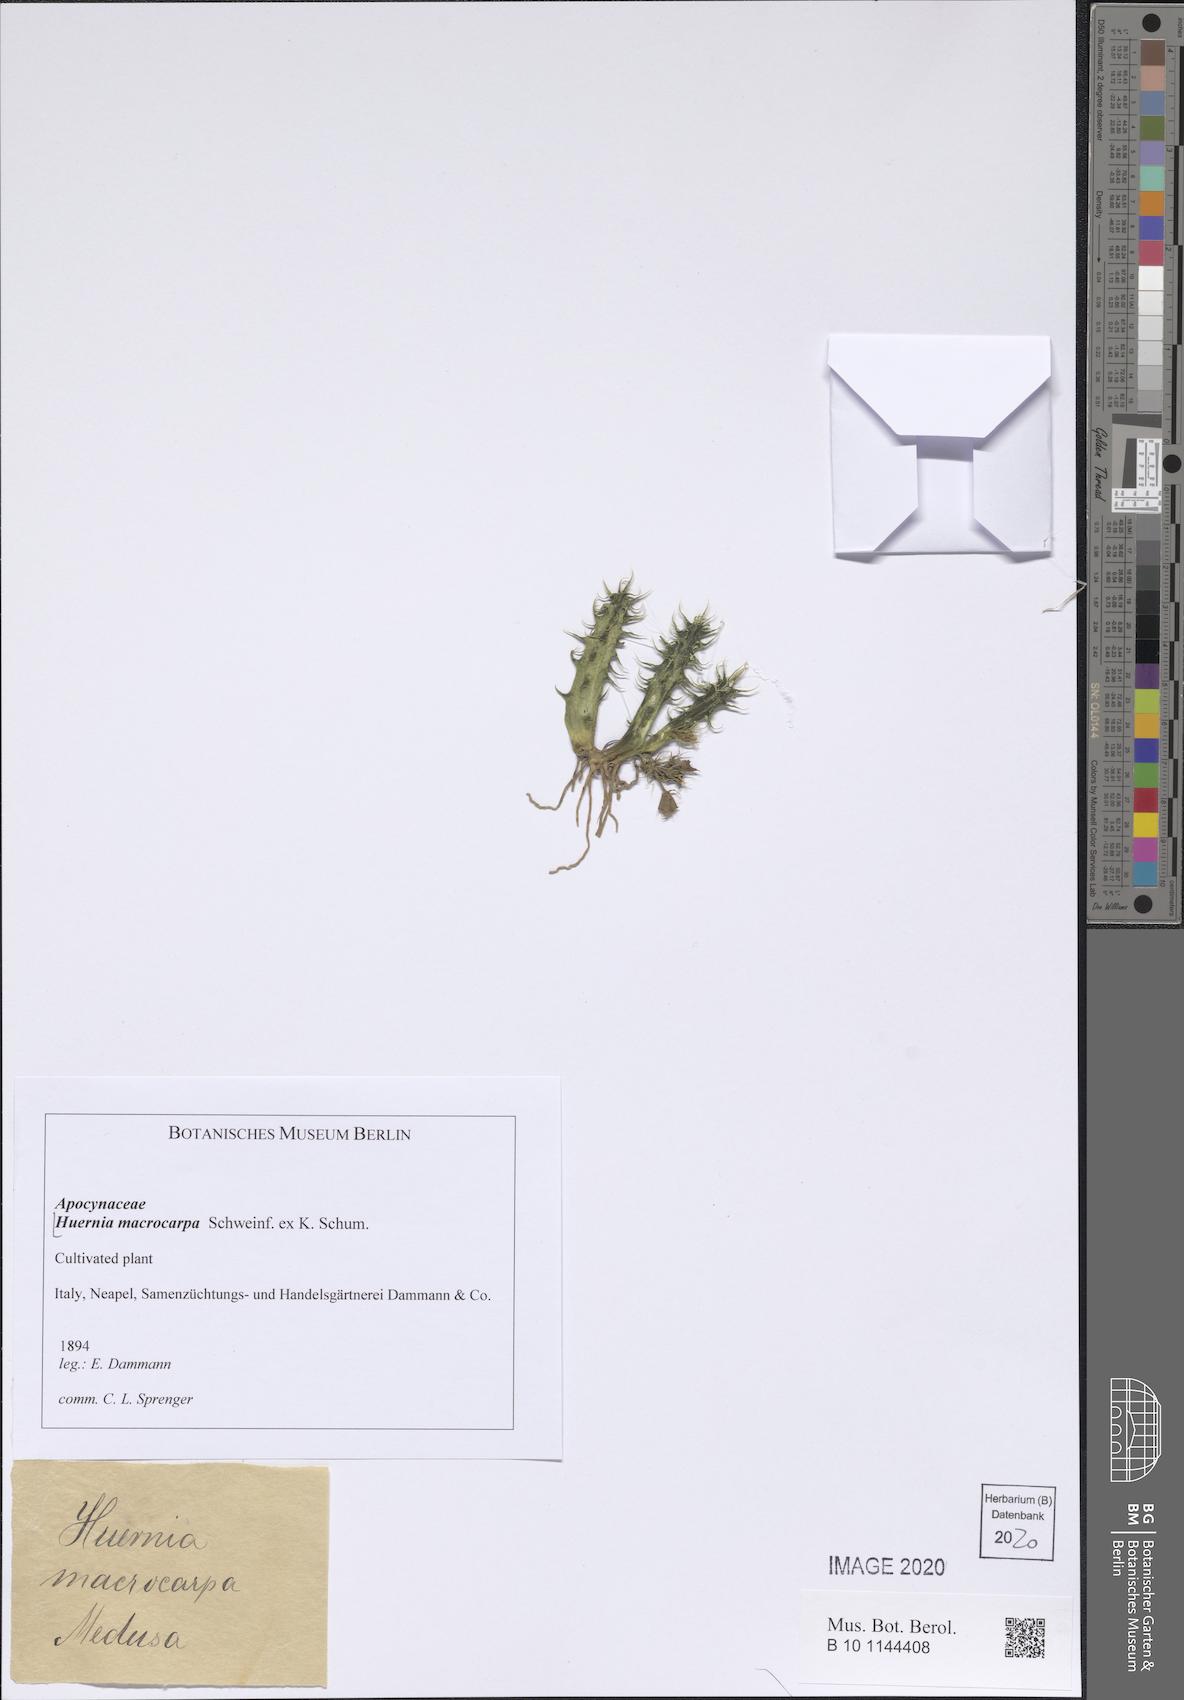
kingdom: Plantae
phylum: Tracheophyta
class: Magnoliopsida
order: Gentianales
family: Apocynaceae
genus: Ceropegia
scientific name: Ceropegia macrocarpa
